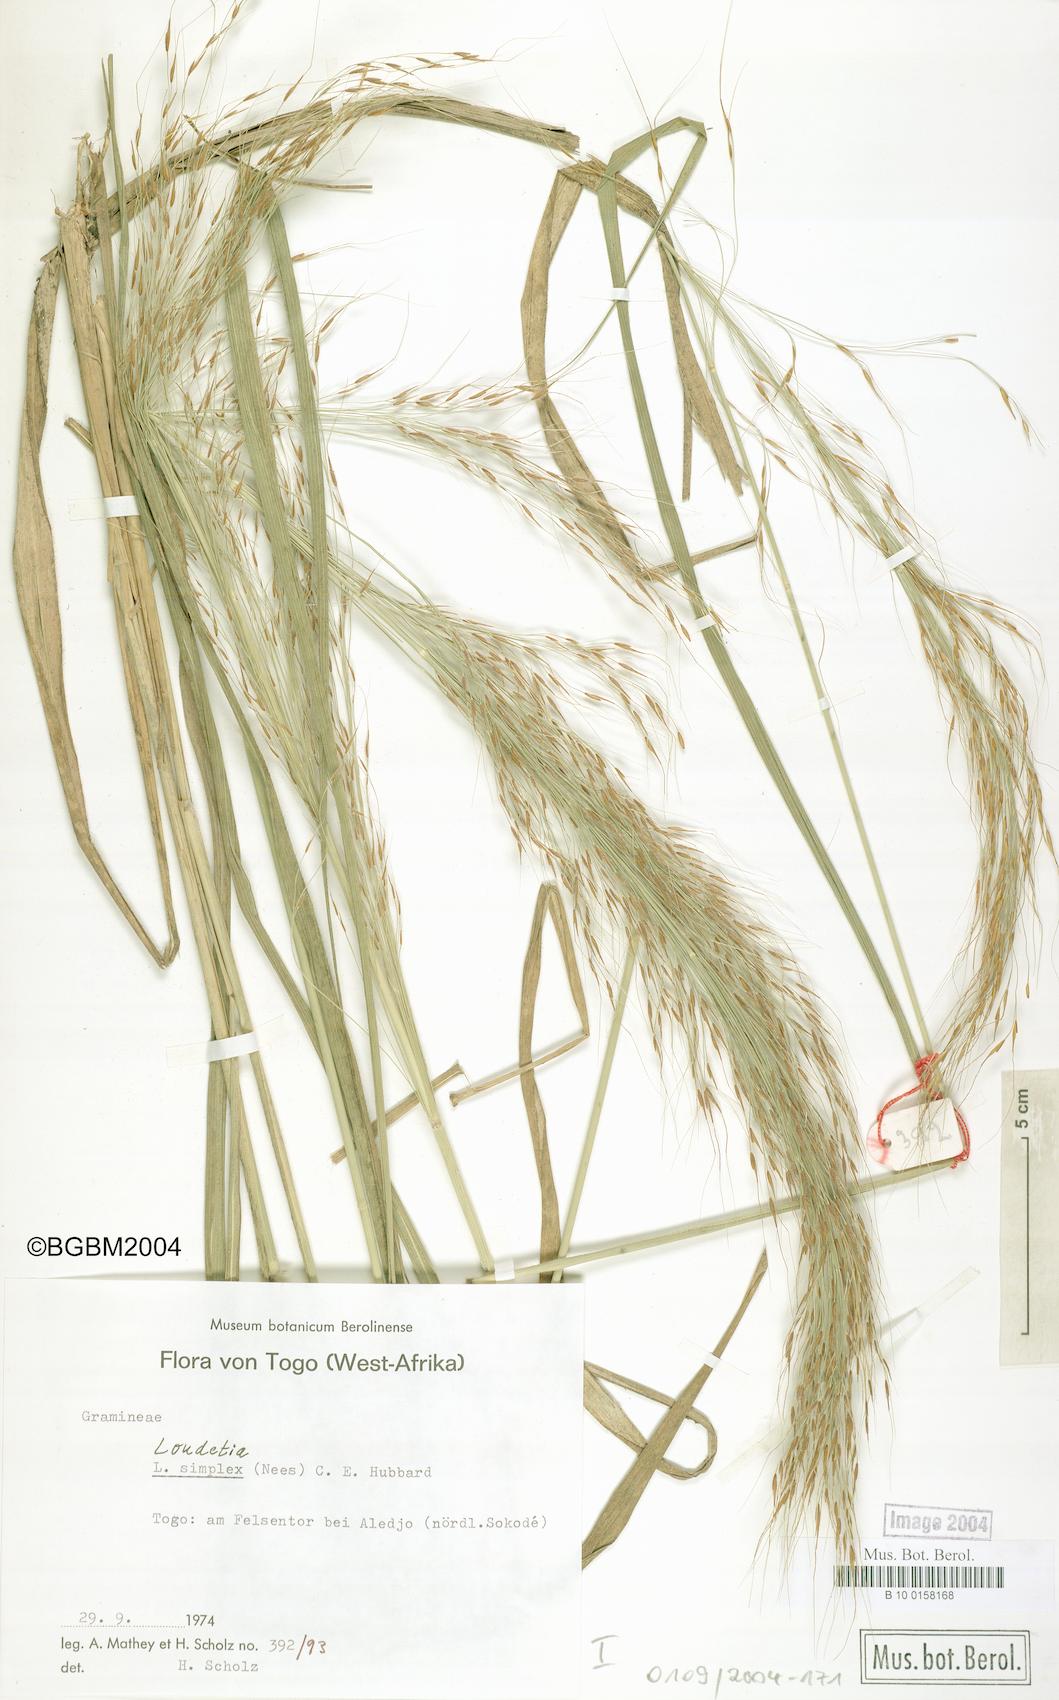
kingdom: Plantae
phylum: Tracheophyta
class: Liliopsida
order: Poales
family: Poaceae
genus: Loudetia
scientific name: Loudetia simplex
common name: Common russet grass
